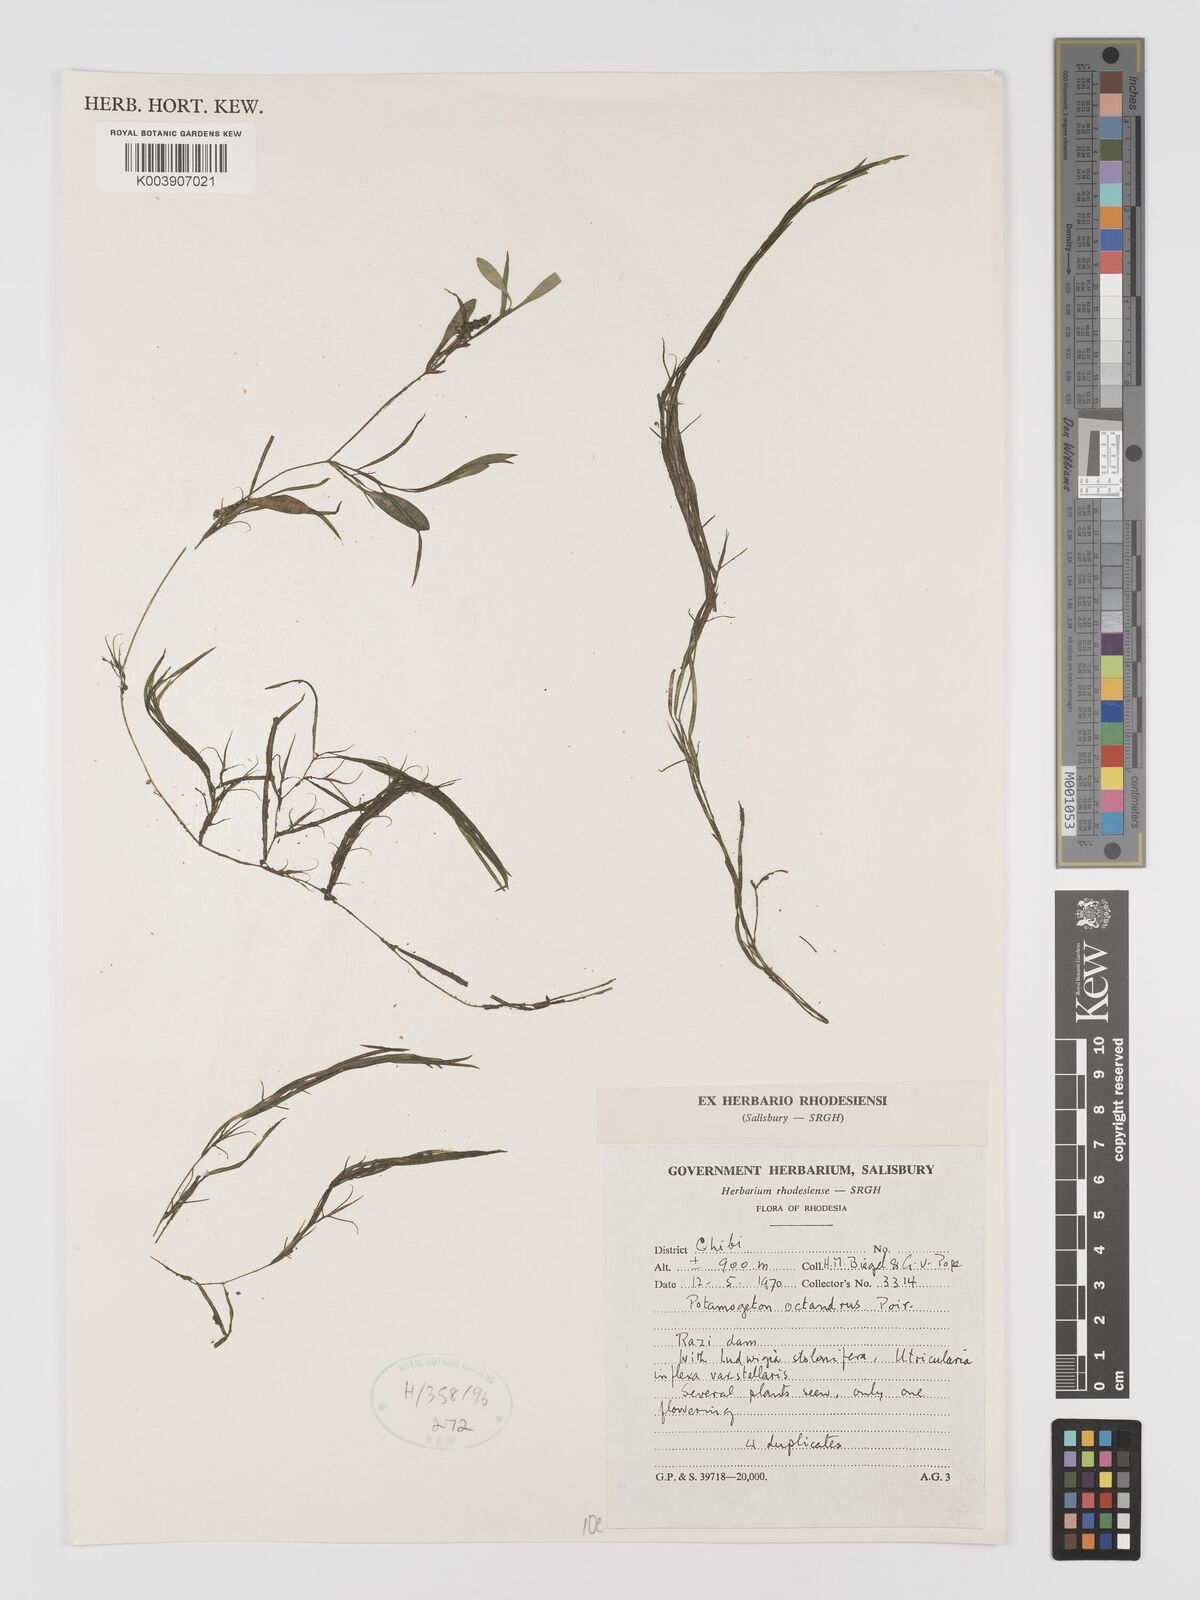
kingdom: Plantae
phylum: Tracheophyta
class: Liliopsida
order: Alismatales
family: Potamogetonaceae
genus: Potamogeton
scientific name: Potamogeton octandrus
